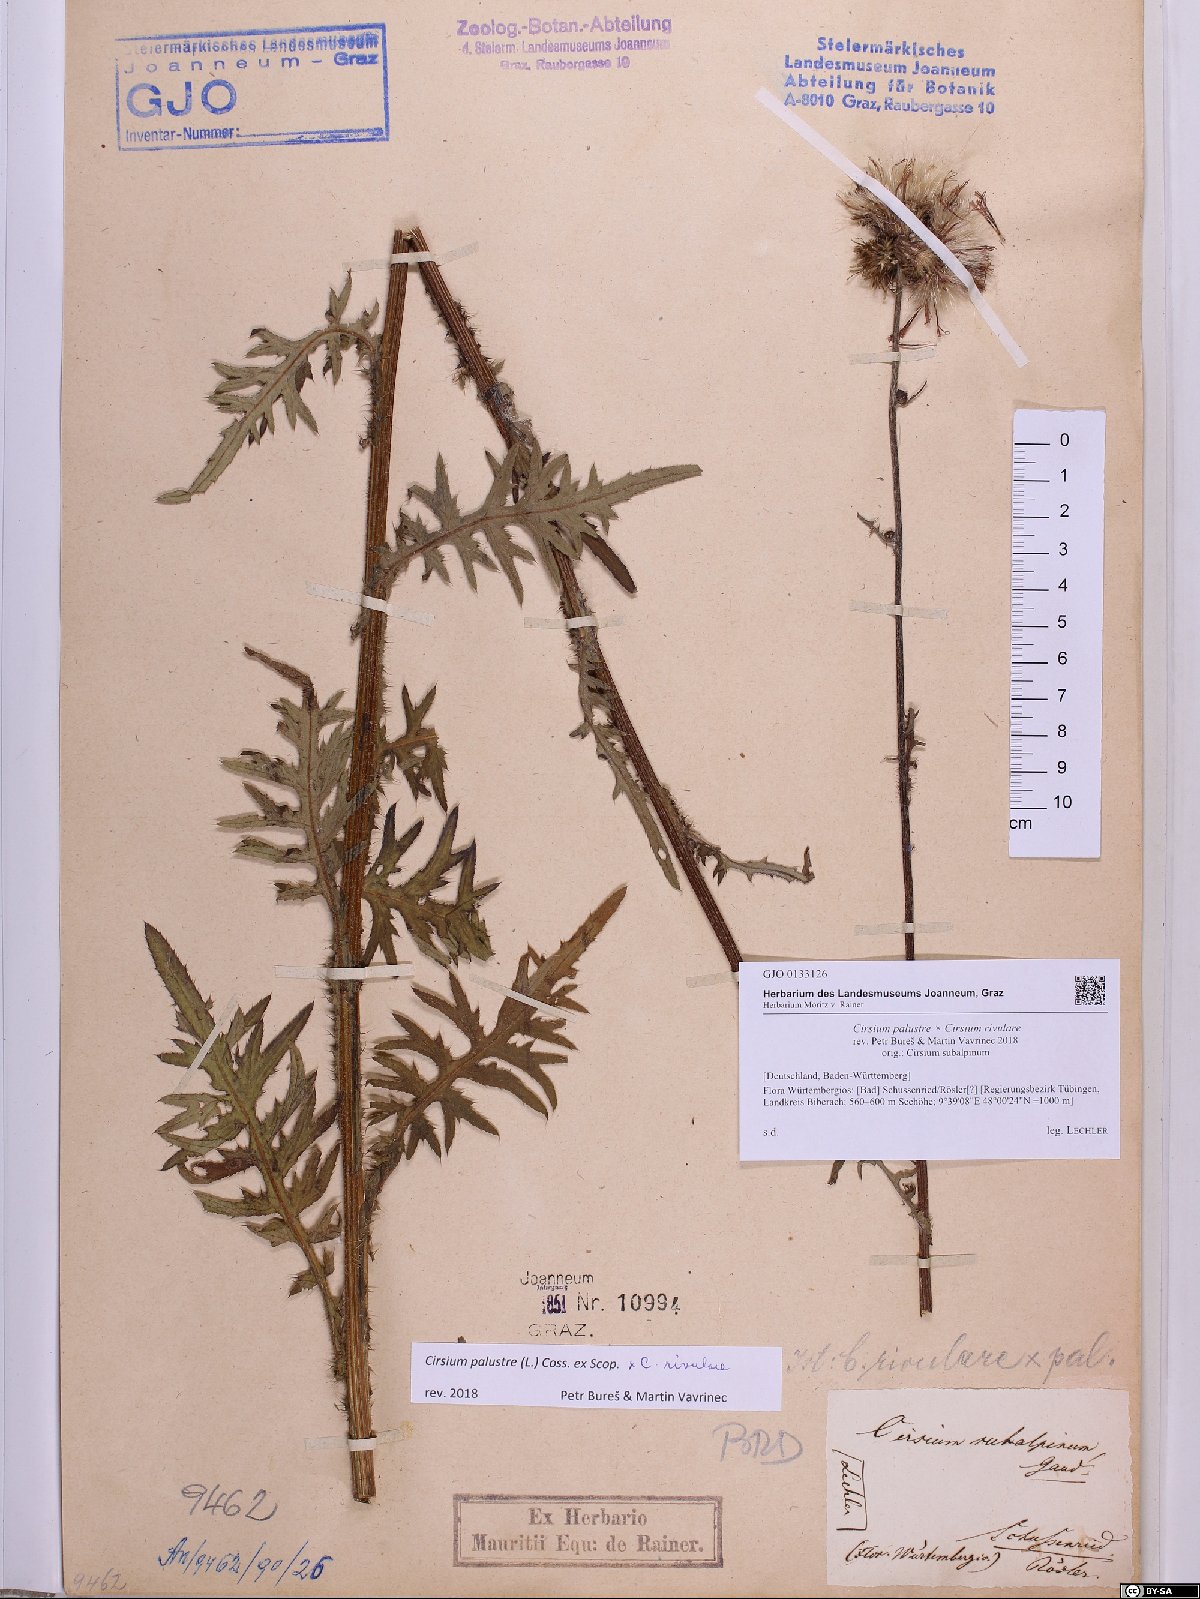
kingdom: Plantae
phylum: Tracheophyta
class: Magnoliopsida
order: Asterales
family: Asteraceae
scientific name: Asteraceae
